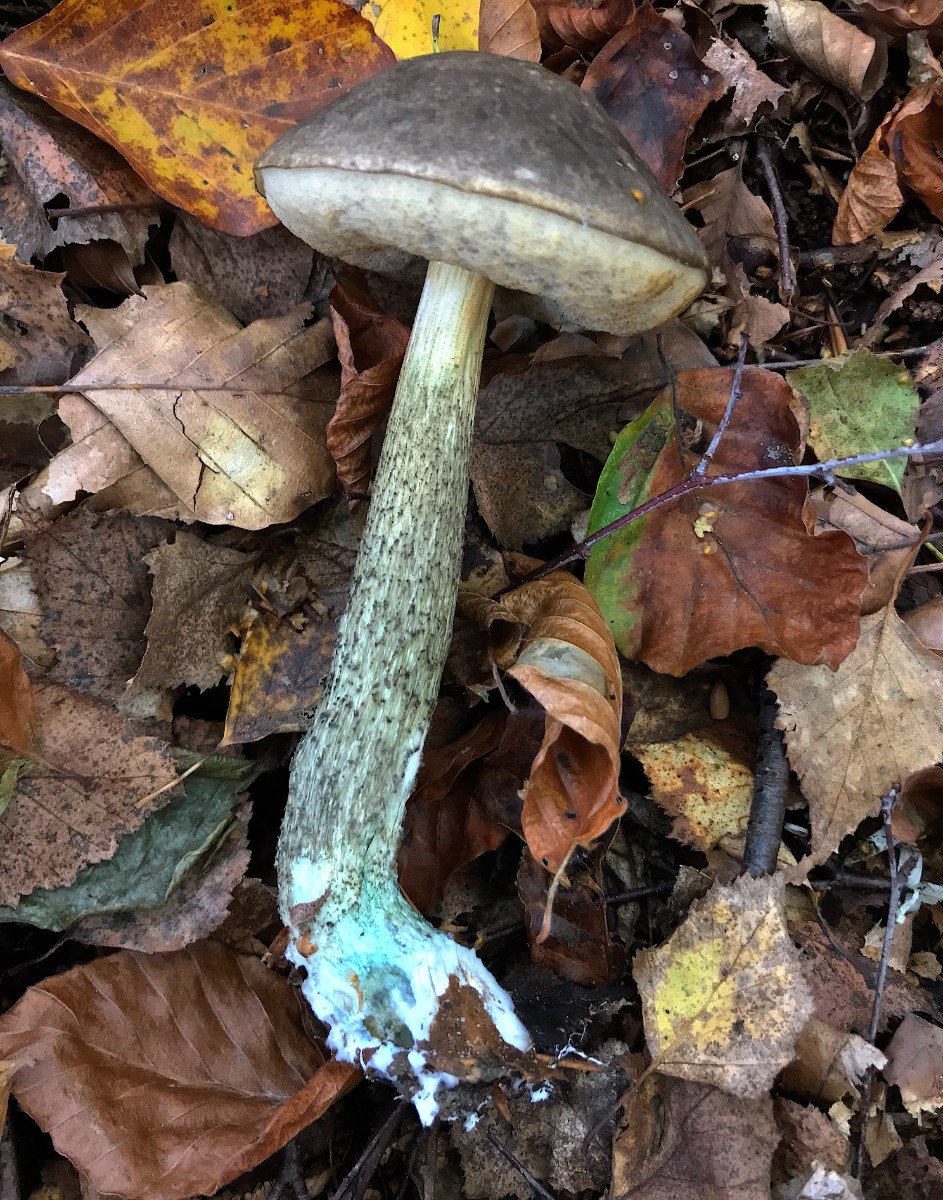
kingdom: Fungi
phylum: Basidiomycota
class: Agaricomycetes
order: Boletales
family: Boletaceae
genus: Leccinum
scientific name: Leccinum variicolor
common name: flammet skælrørhat
